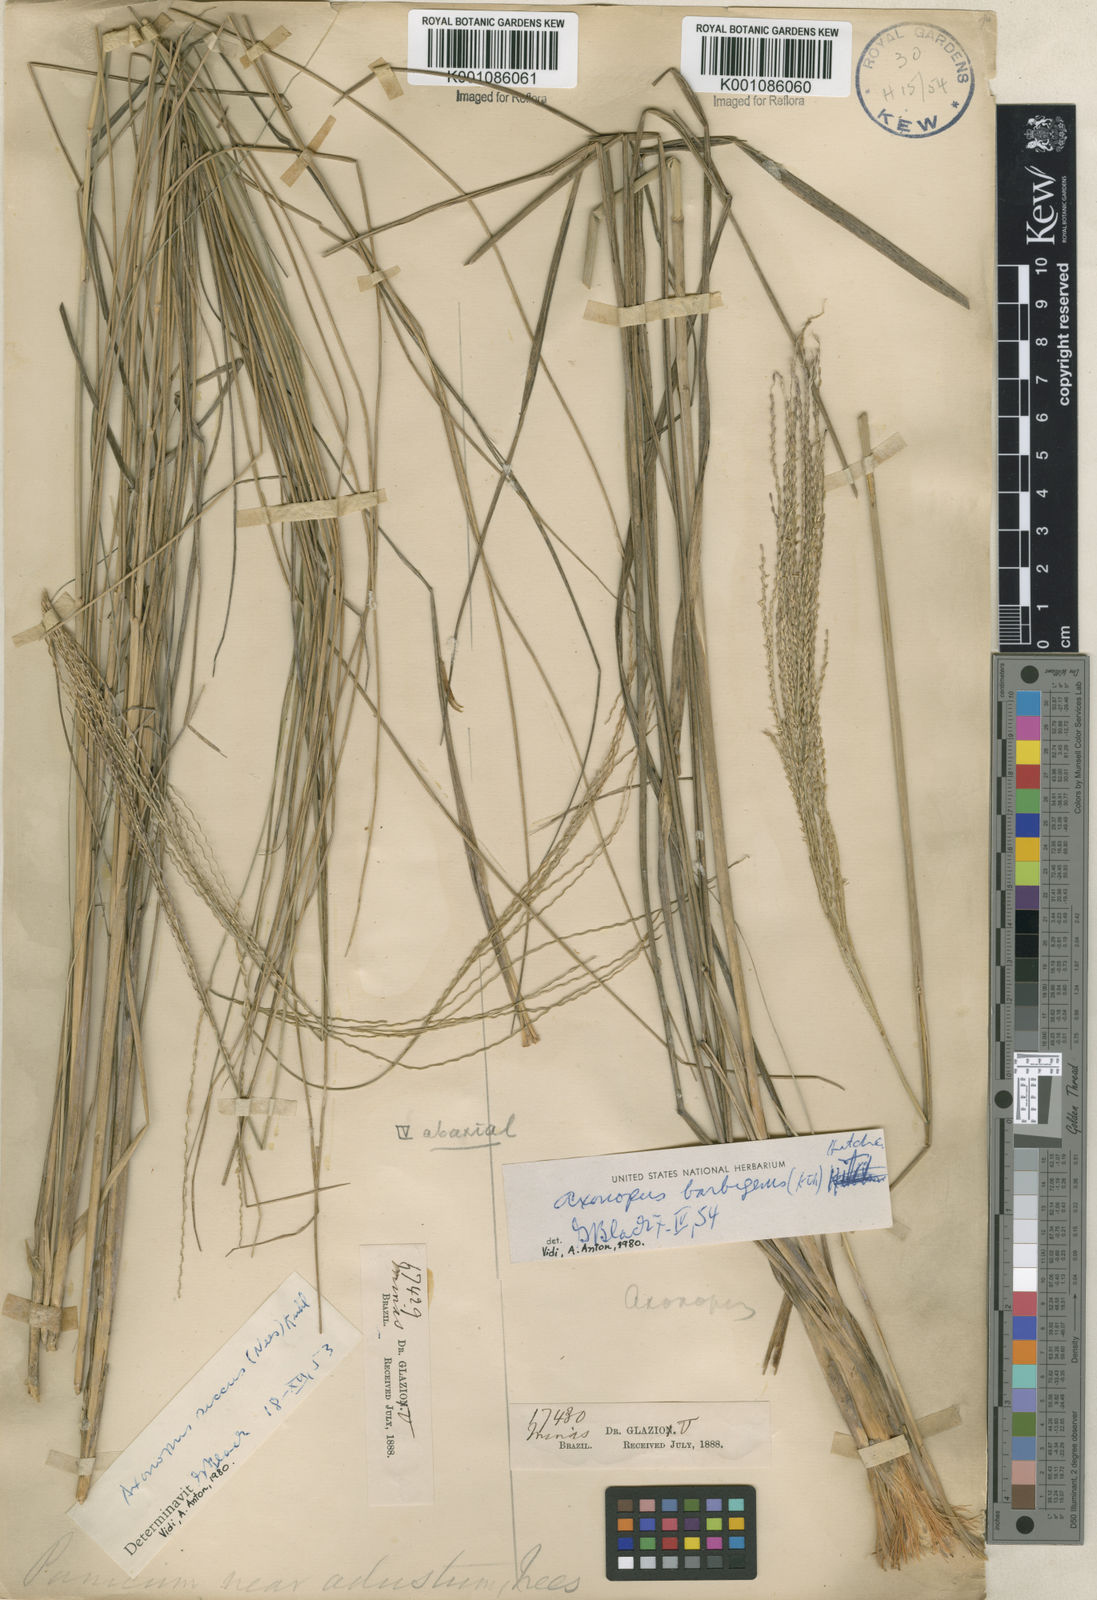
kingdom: Plantae
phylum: Tracheophyta
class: Liliopsida
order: Poales
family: Poaceae
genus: Axonopus
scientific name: Axonopus siccus
